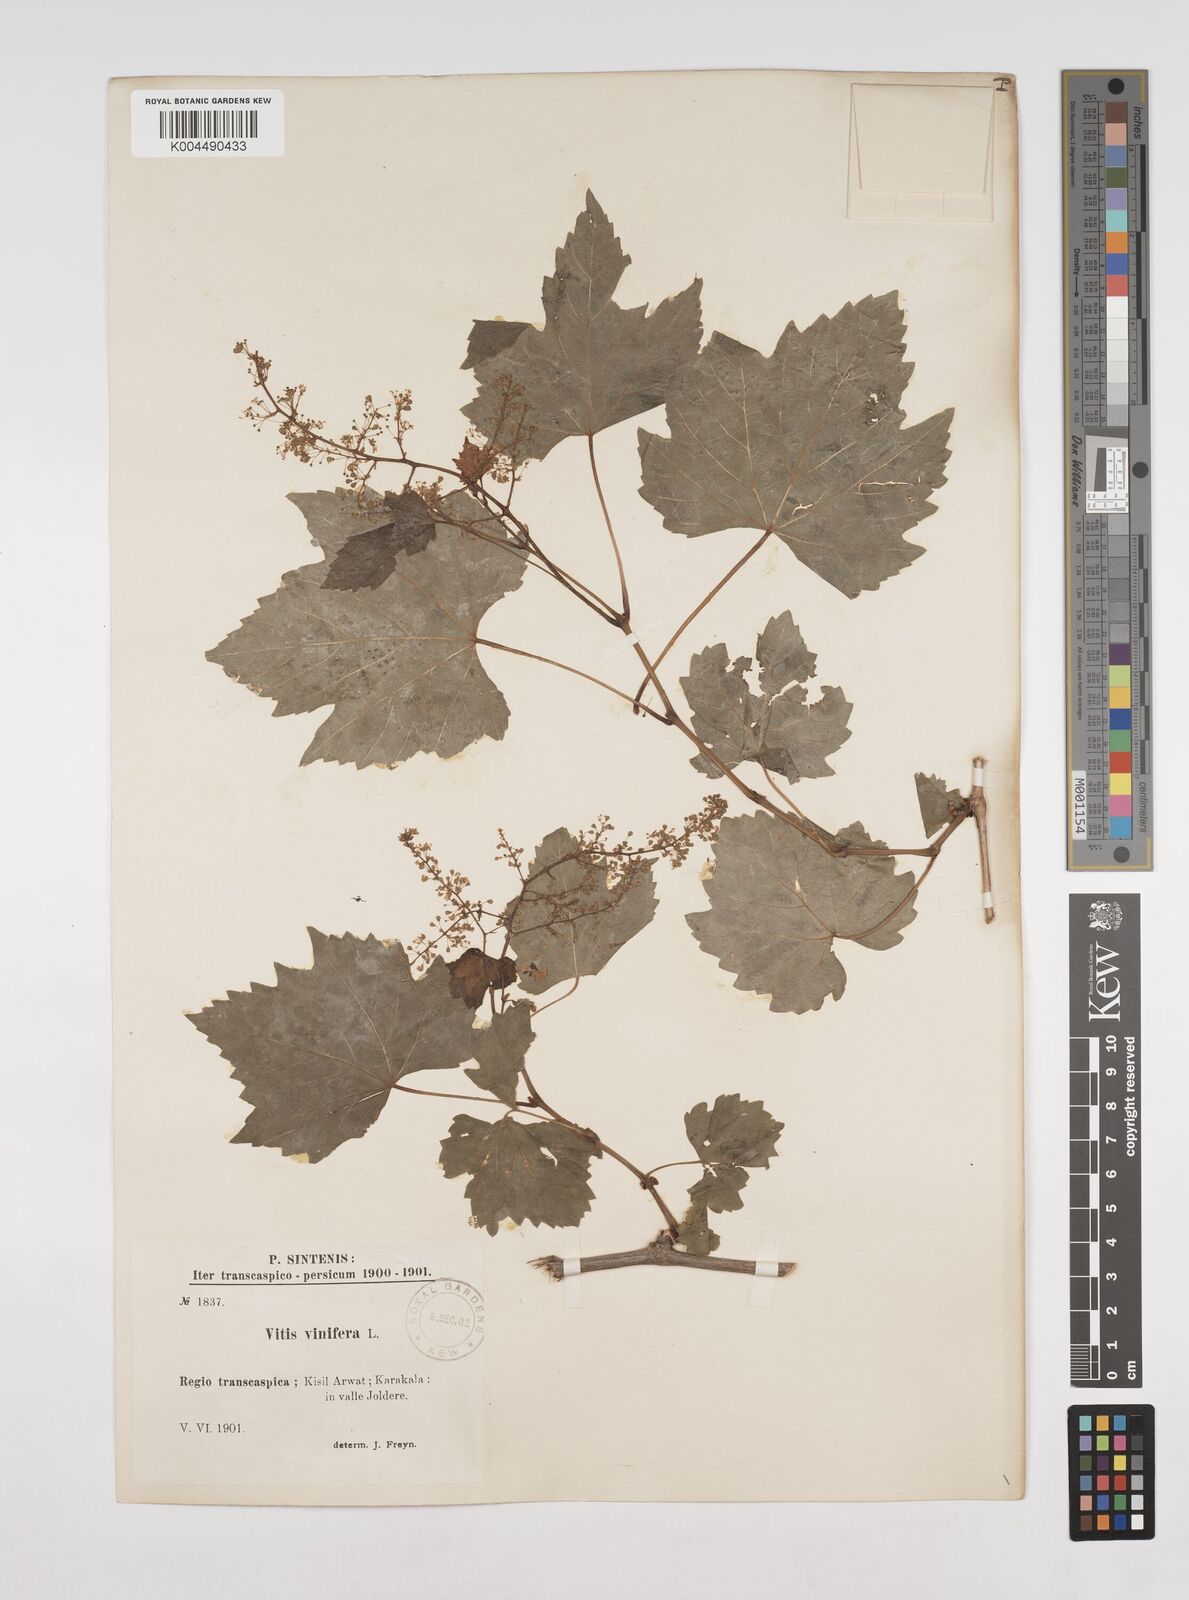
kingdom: Plantae
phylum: Tracheophyta
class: Magnoliopsida
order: Vitales
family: Vitaceae
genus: Vitis
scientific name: Vitis vinifera
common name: Grape-vine
